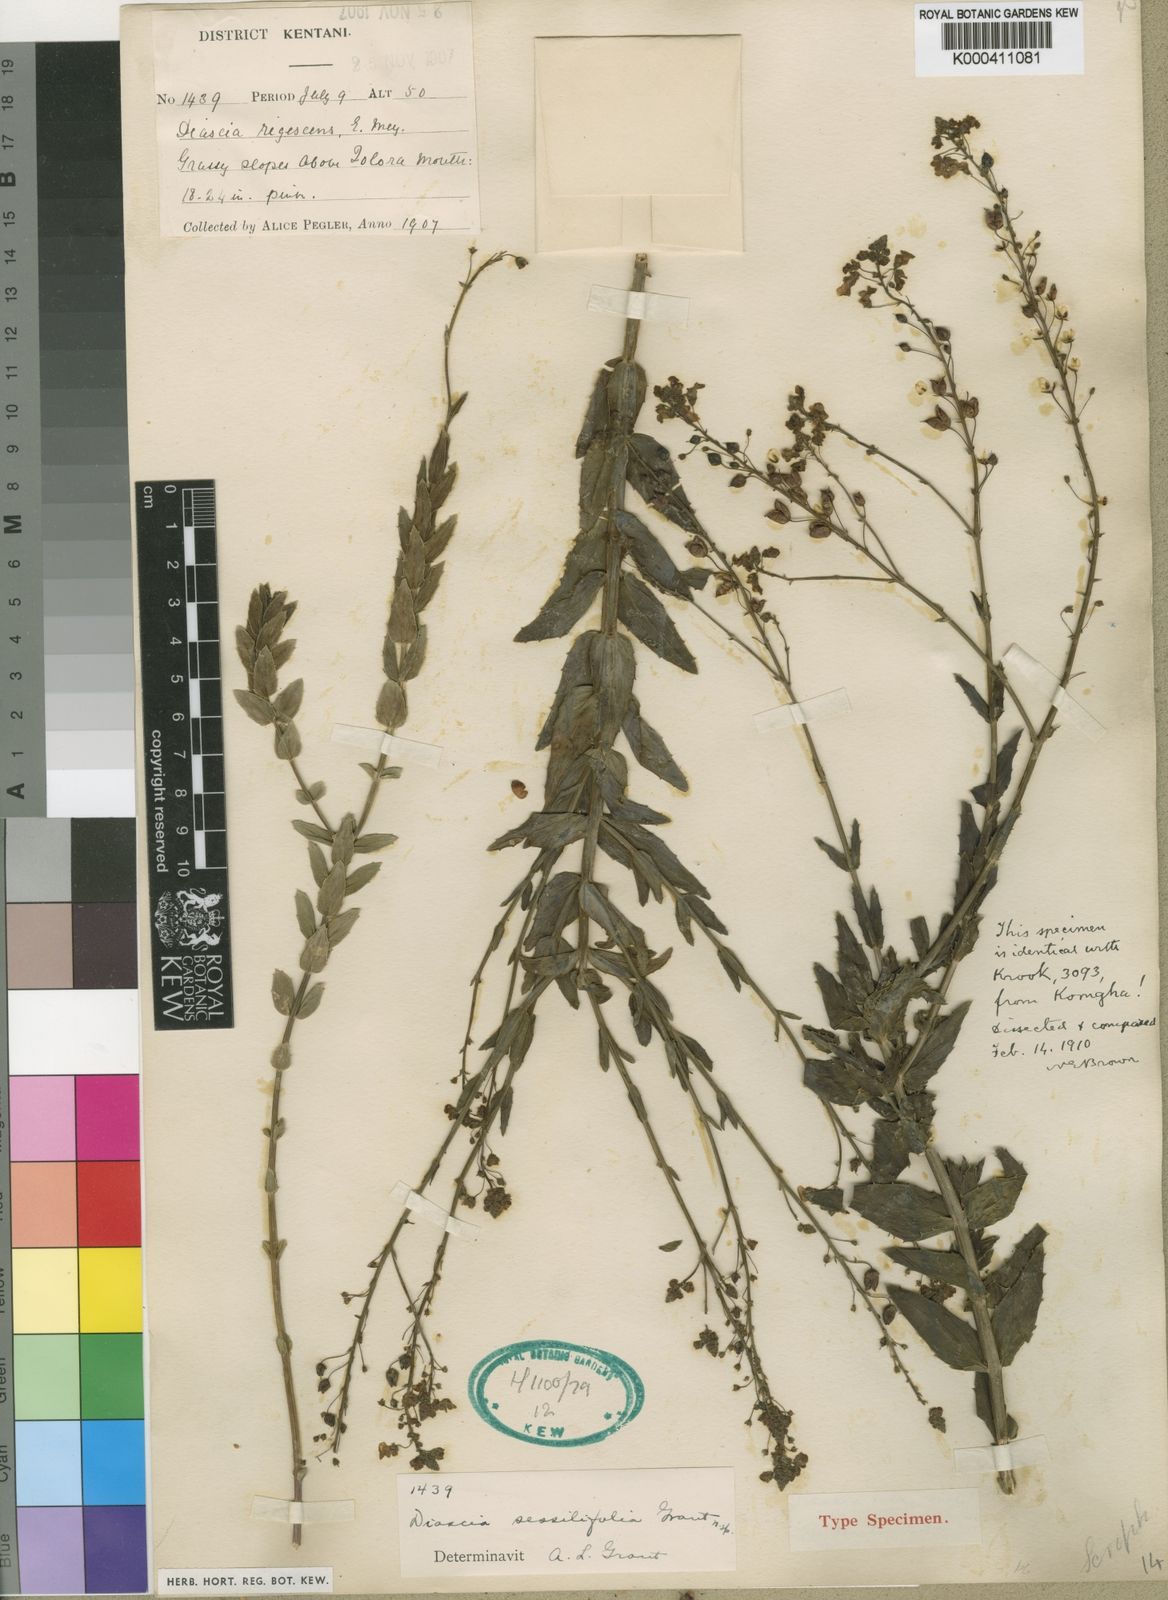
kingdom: Plantae
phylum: Tracheophyta
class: Magnoliopsida
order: Lamiales
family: Scrophulariaceae
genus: Diascia
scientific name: Diascia personata
